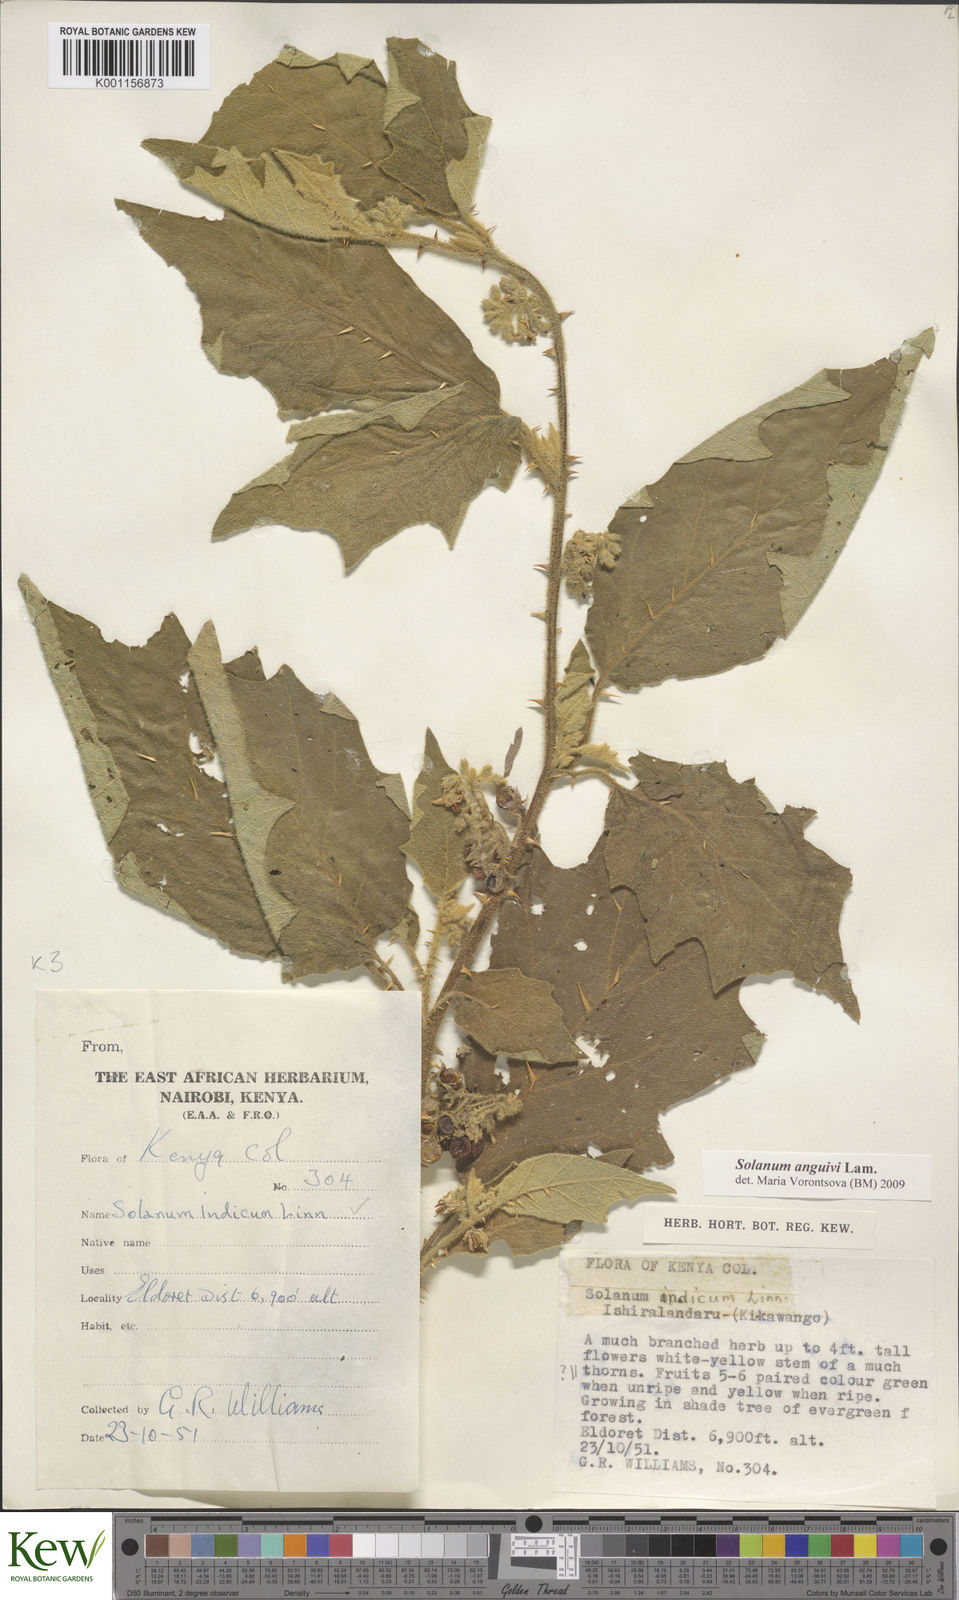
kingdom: Plantae
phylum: Tracheophyta
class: Magnoliopsida
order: Solanales
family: Solanaceae
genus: Solanum
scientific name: Solanum anguivi
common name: Forest bitterberry
